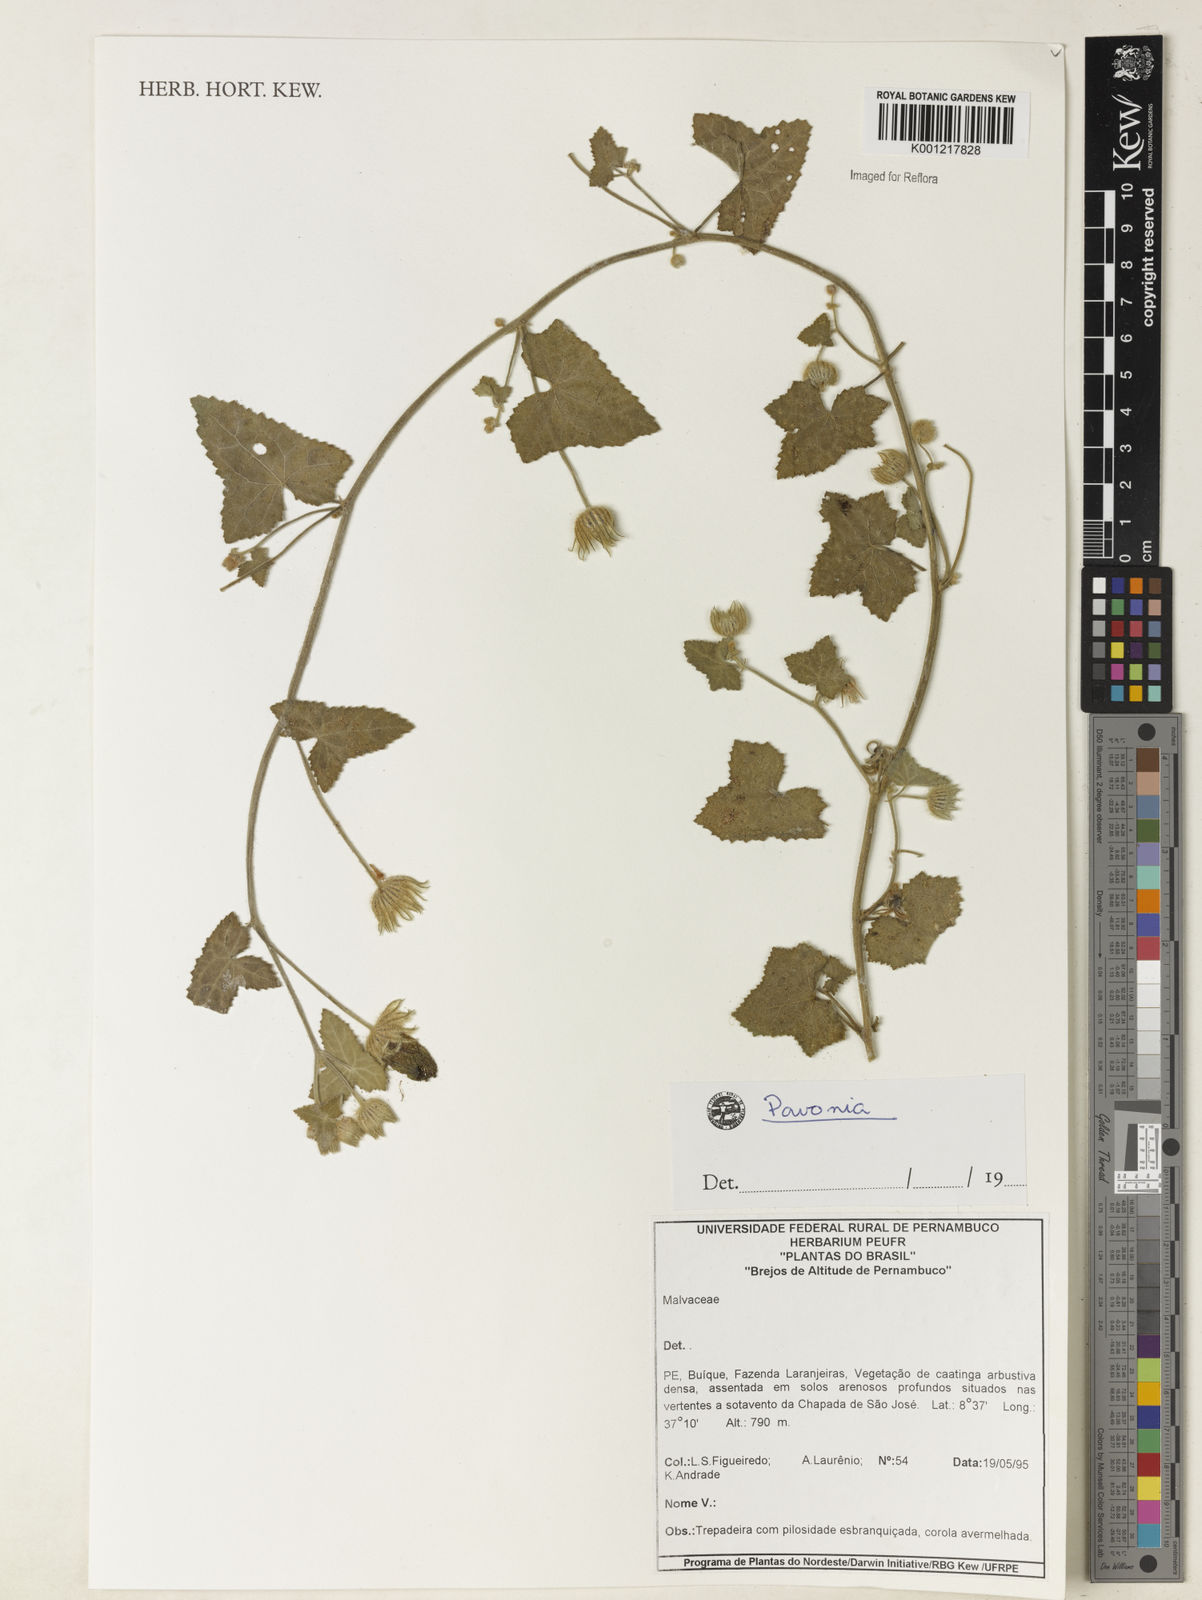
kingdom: Plantae
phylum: Tracheophyta
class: Magnoliopsida
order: Malvales
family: Malvaceae
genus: Pavonia
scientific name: Pavonia
